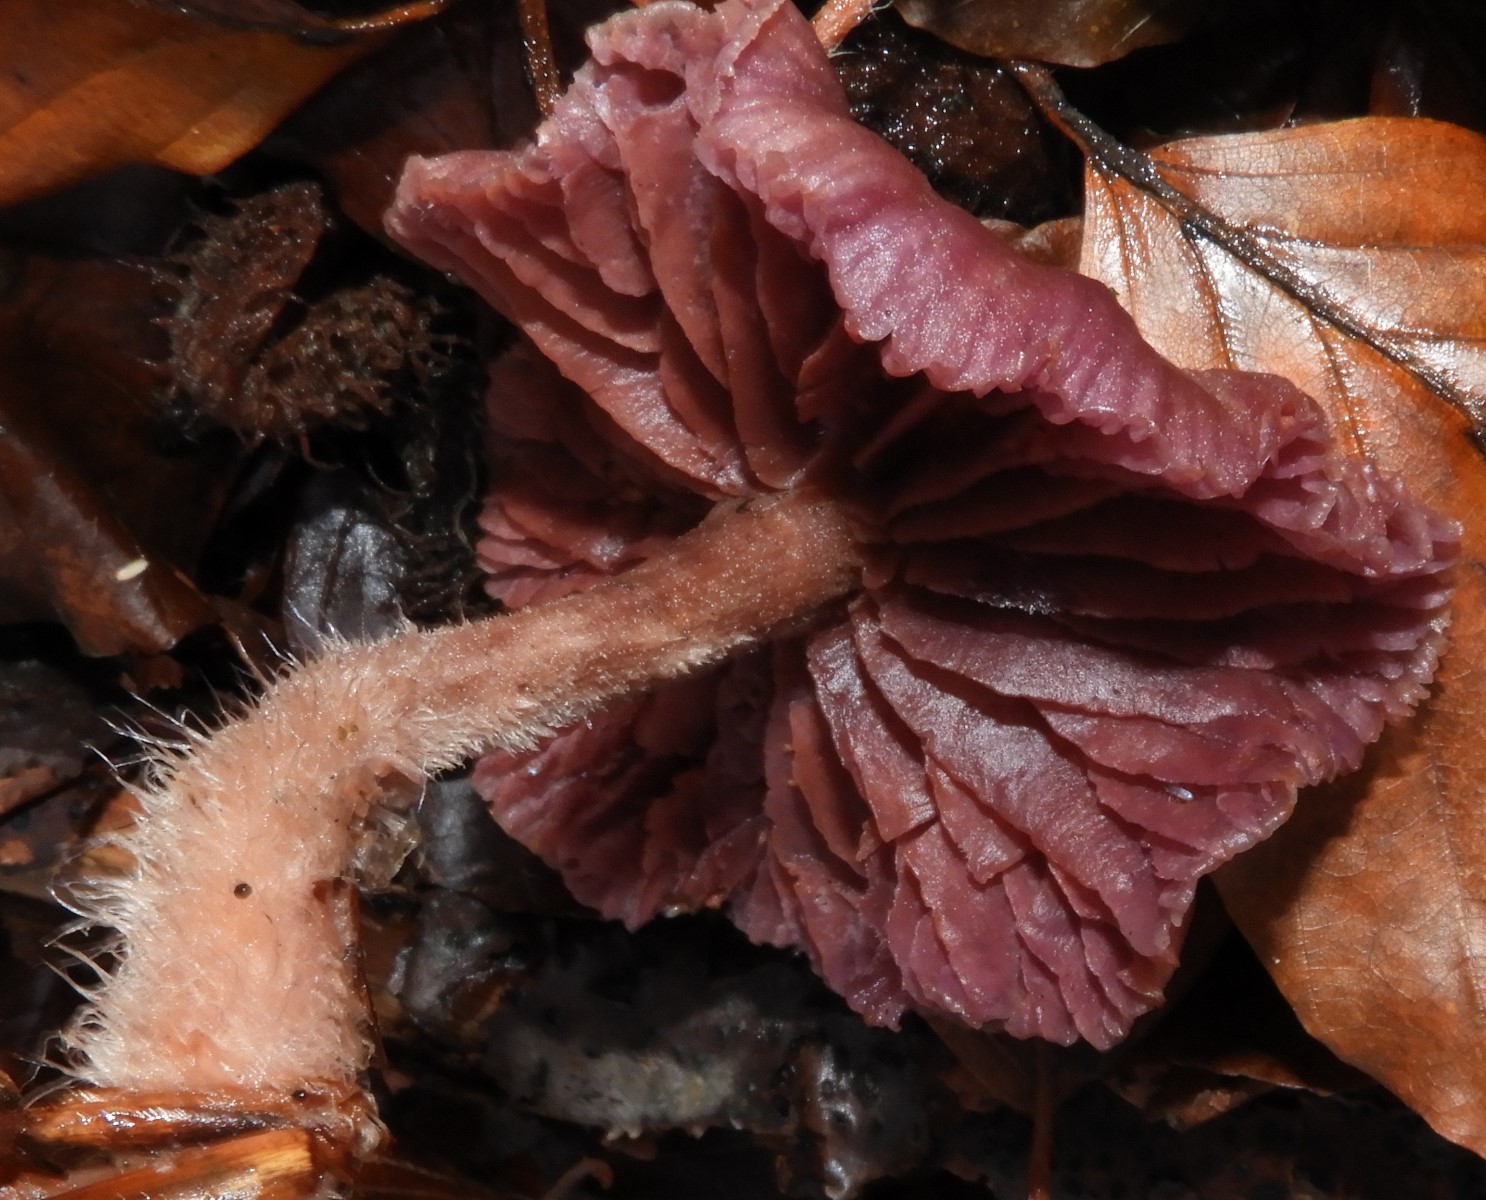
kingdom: Fungi
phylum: Basidiomycota
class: Agaricomycetes
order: Agaricales
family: Hydnangiaceae
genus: Laccaria
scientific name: Laccaria amethystina
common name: violet ametysthat
